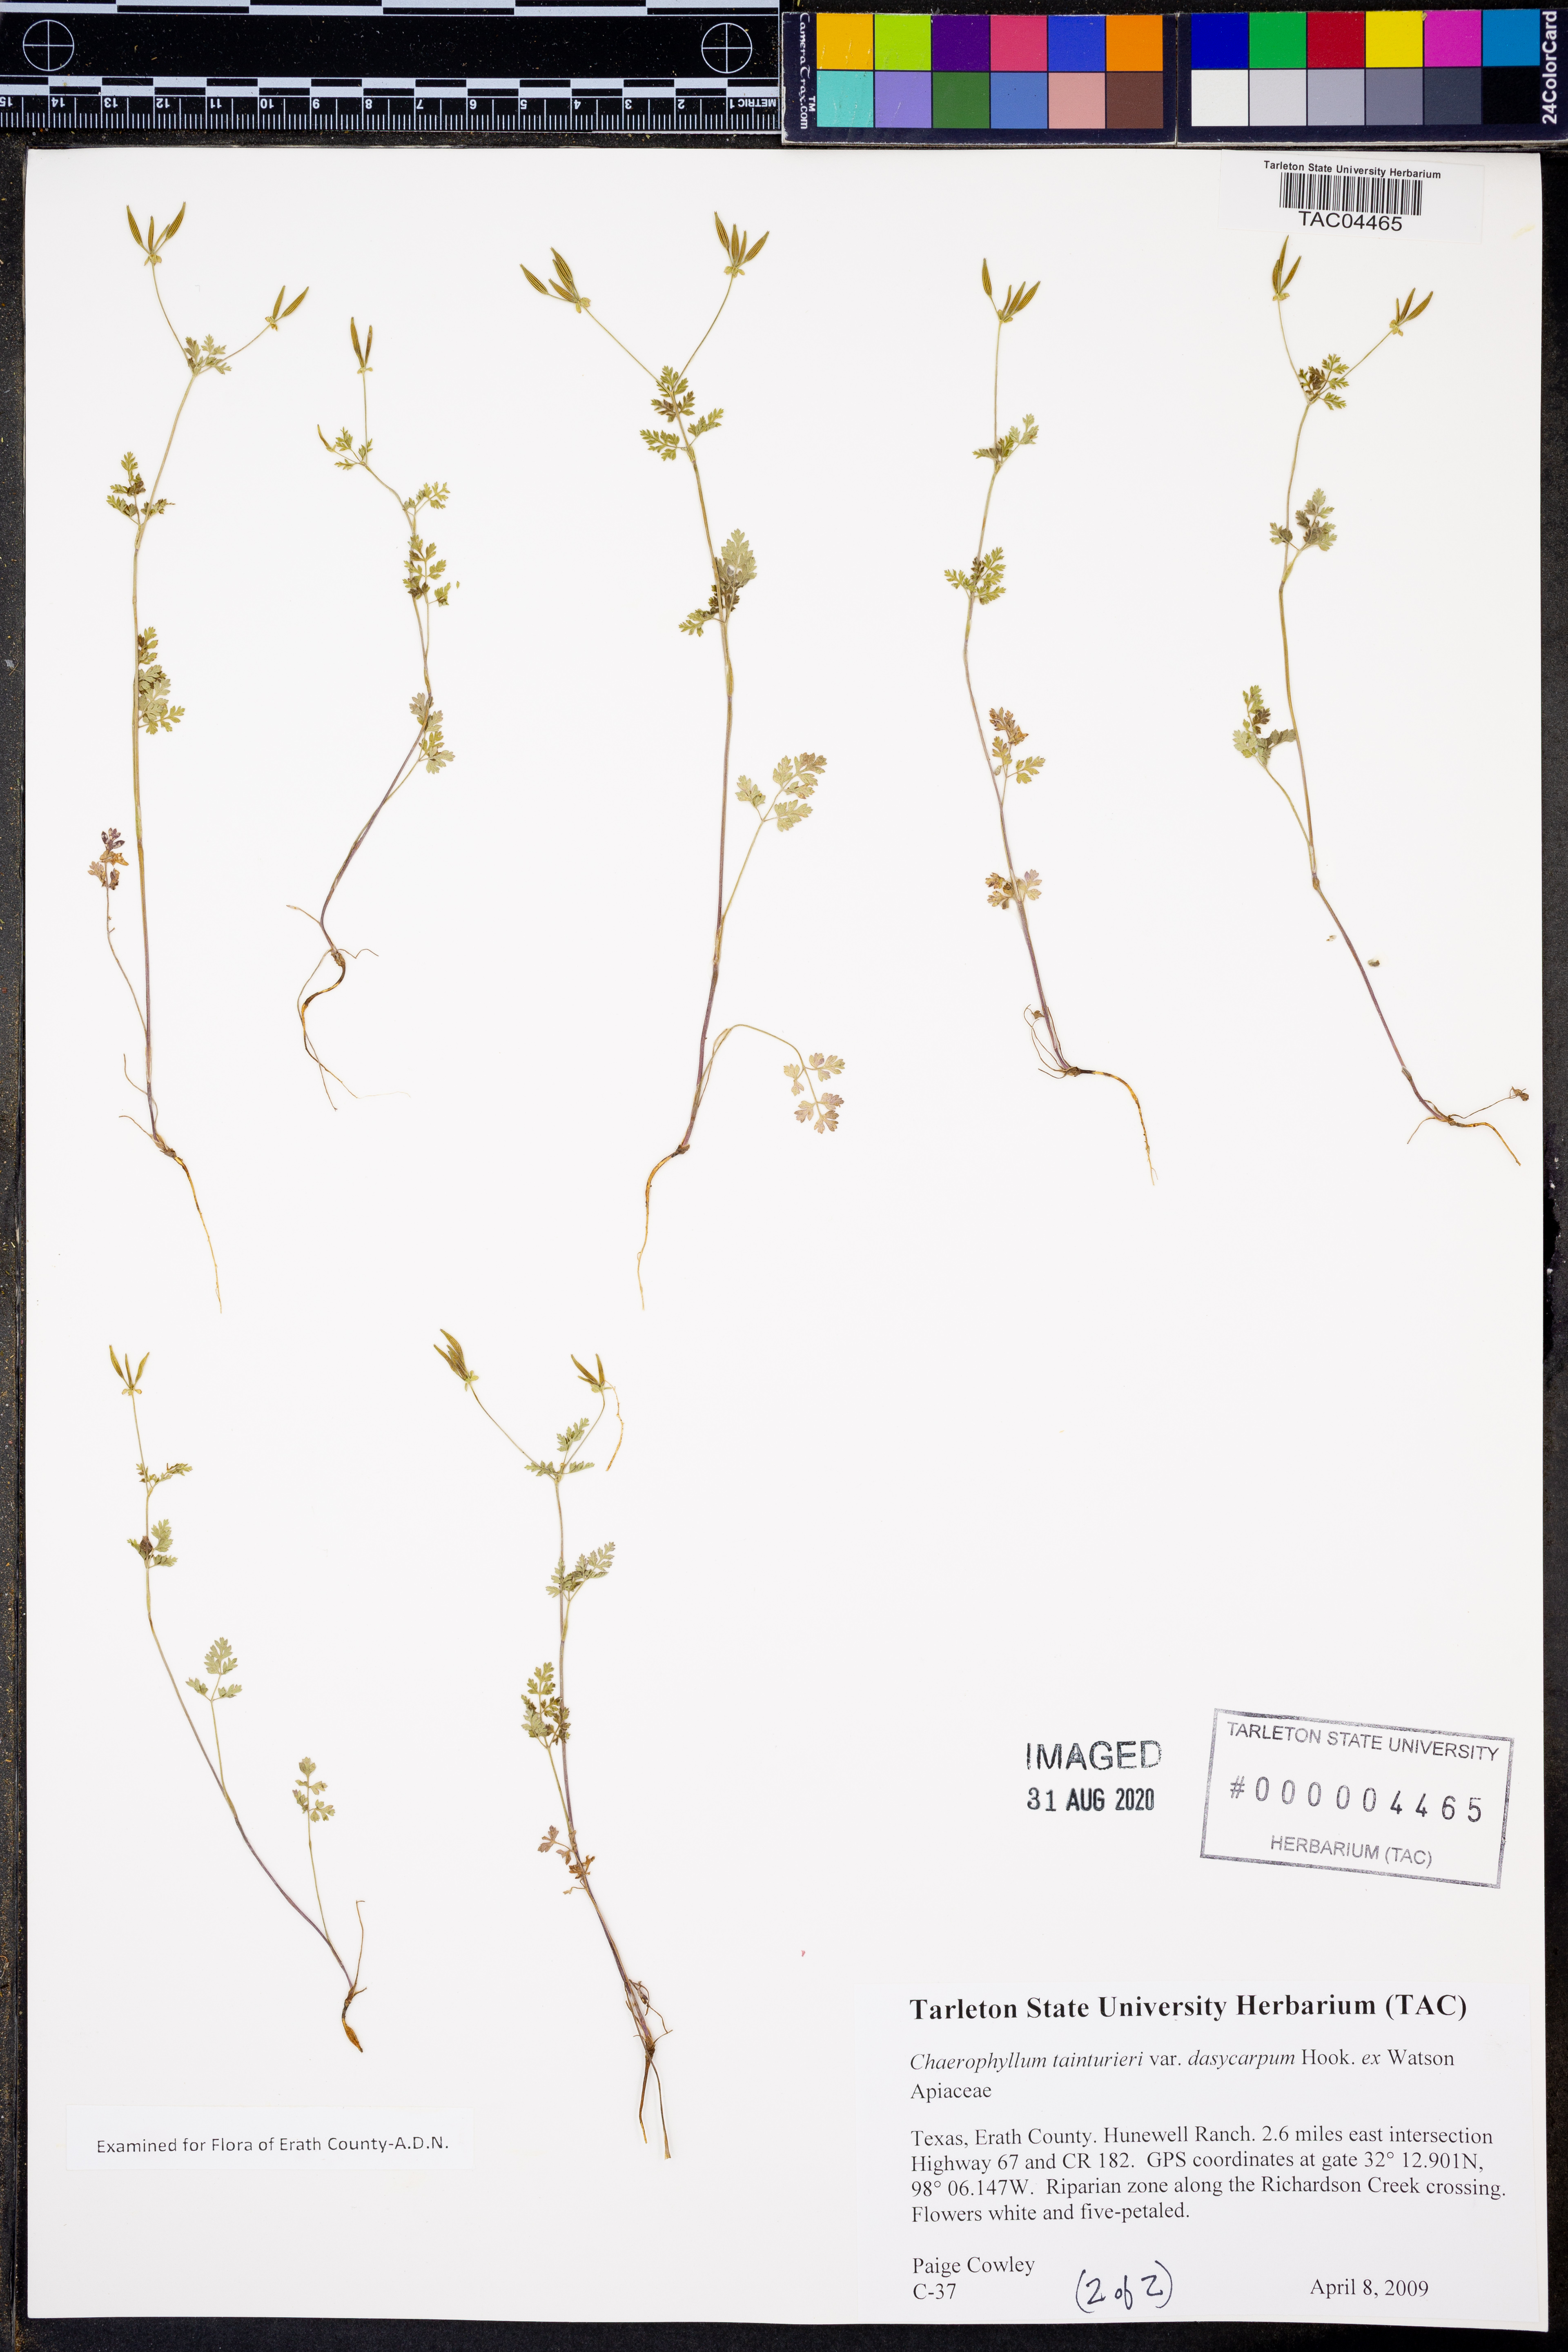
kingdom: Plantae
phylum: Tracheophyta
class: Magnoliopsida
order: Apiales
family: Apiaceae
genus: Chaerophyllum
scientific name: Chaerophyllum dasycarpum
